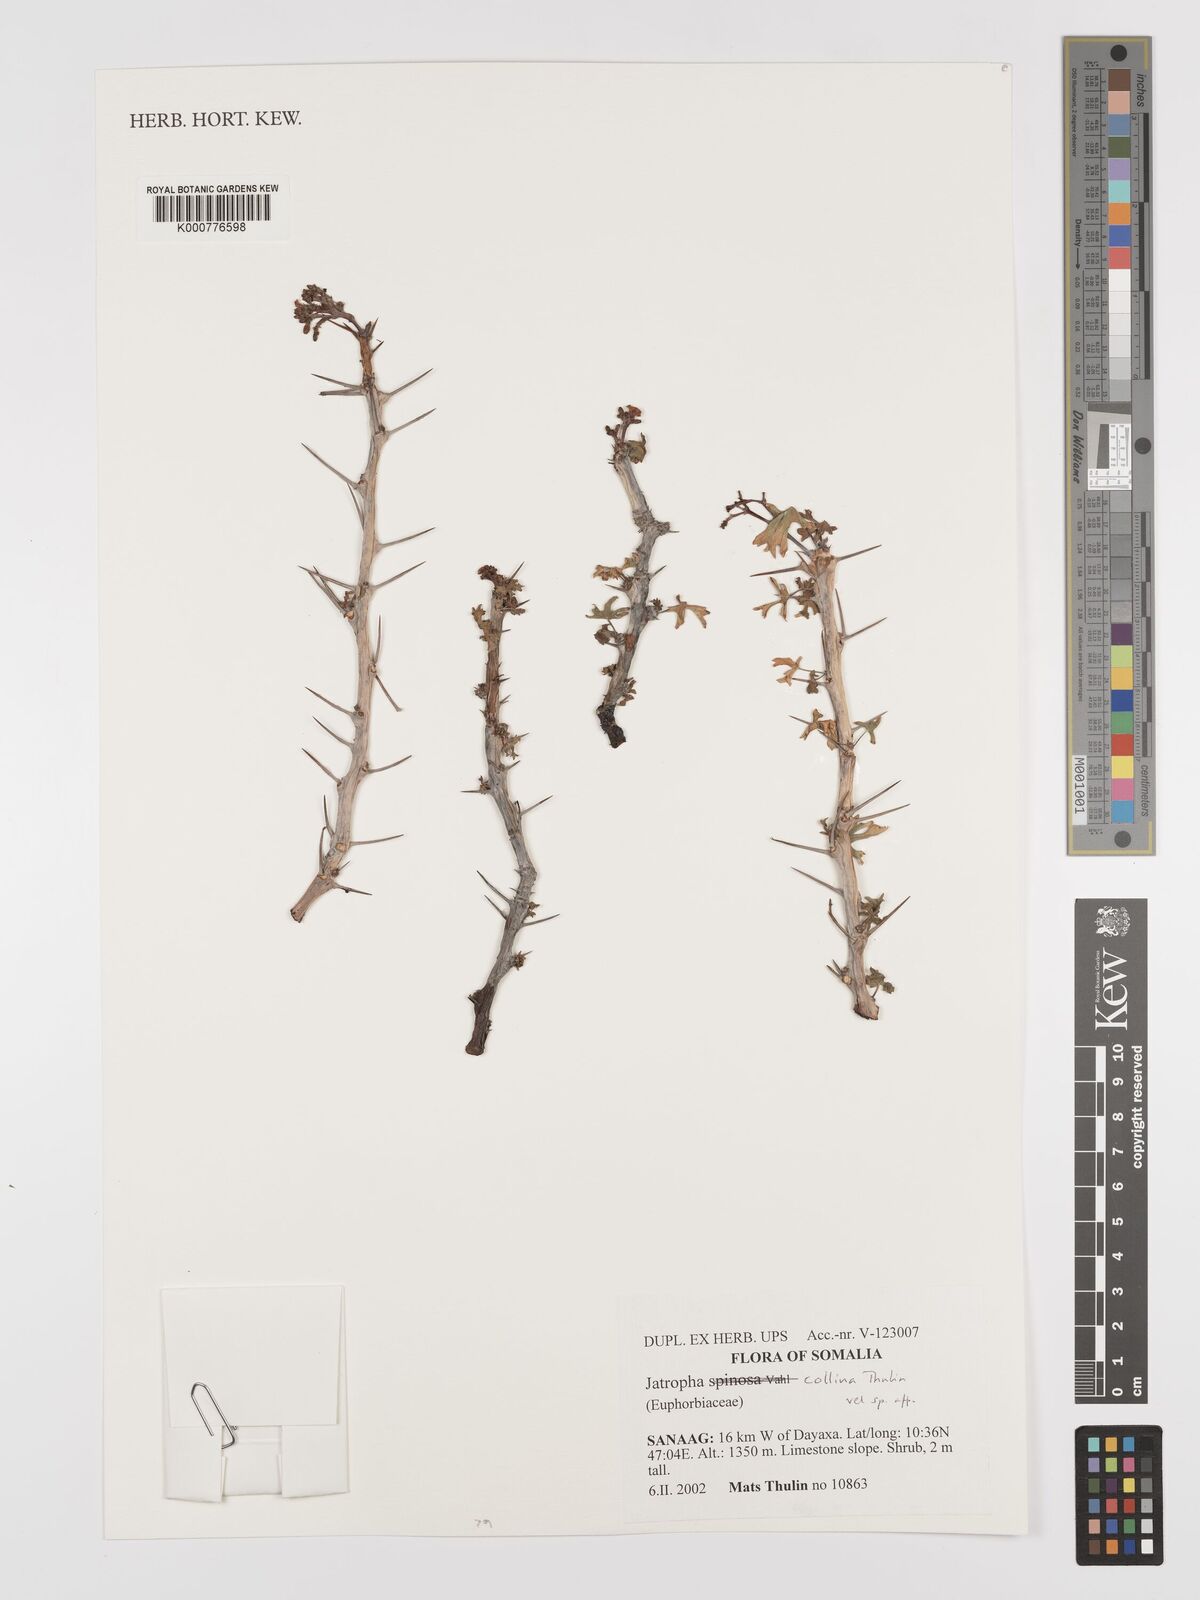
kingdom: Plantae
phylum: Tracheophyta
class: Magnoliopsida
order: Malpighiales
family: Euphorbiaceae
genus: Jatropha
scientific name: Jatropha collina
